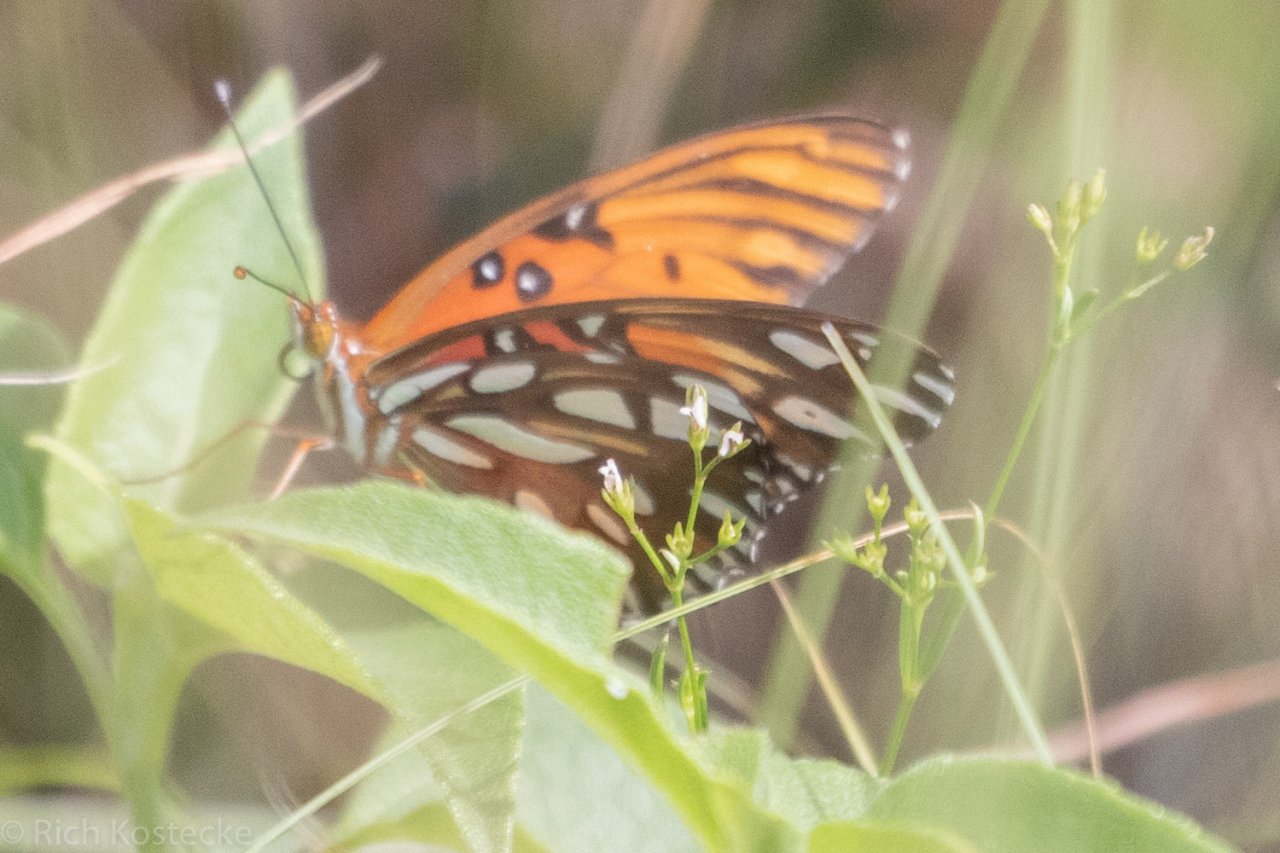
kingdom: Animalia
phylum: Arthropoda
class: Insecta
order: Lepidoptera
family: Nymphalidae
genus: Dione
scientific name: Dione vanillae
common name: Gulf Fritillary
